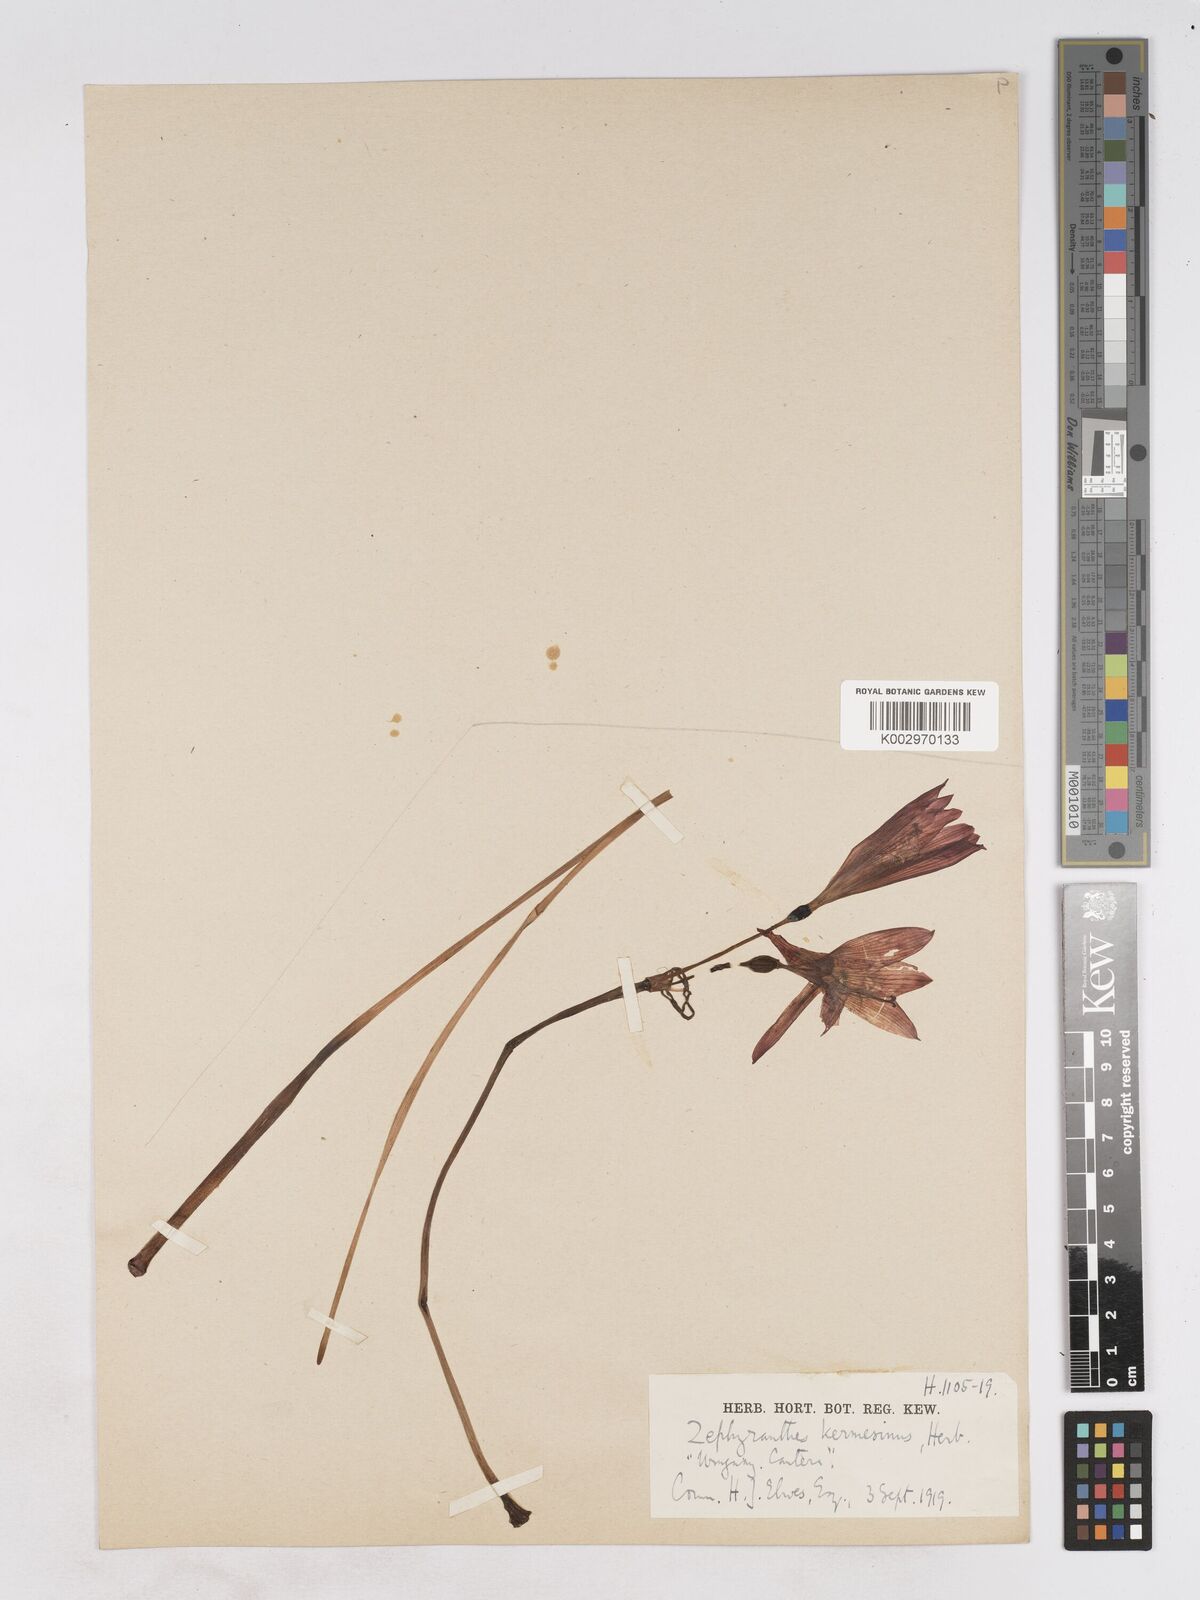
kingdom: Plantae
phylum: Tracheophyta
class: Liliopsida
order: Asparagales
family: Amaryllidaceae
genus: Zephyranthes
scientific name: Zephyranthes bifida
